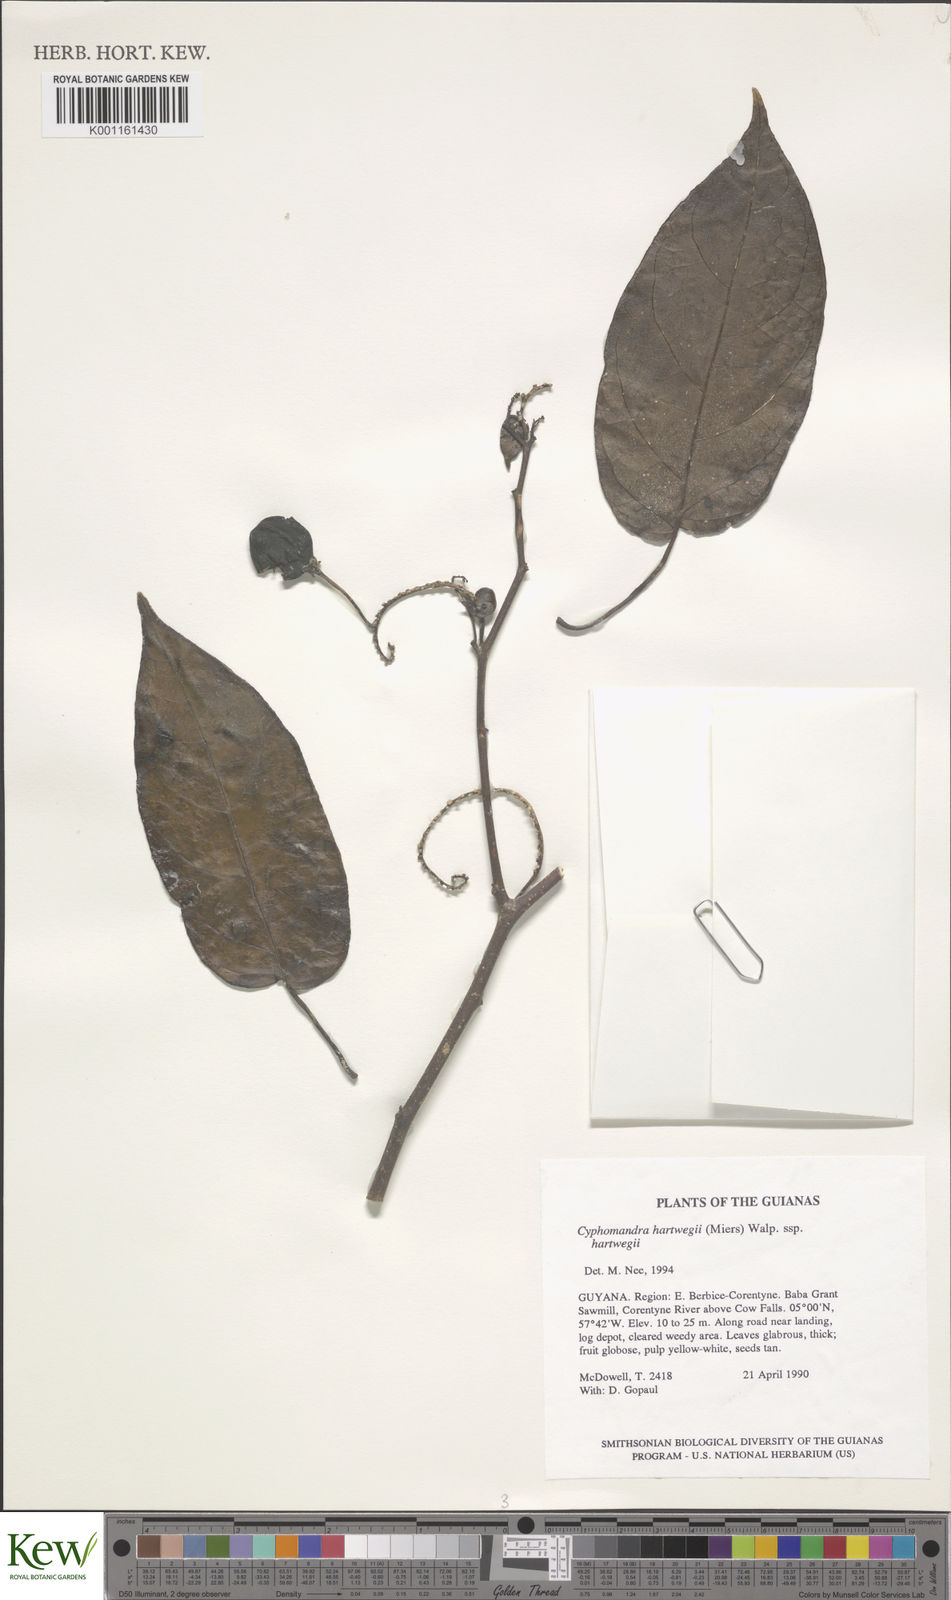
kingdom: Plantae
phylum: Tracheophyta
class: Magnoliopsida
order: Solanales
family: Solanaceae
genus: Solanum
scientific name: Solanum splendens
